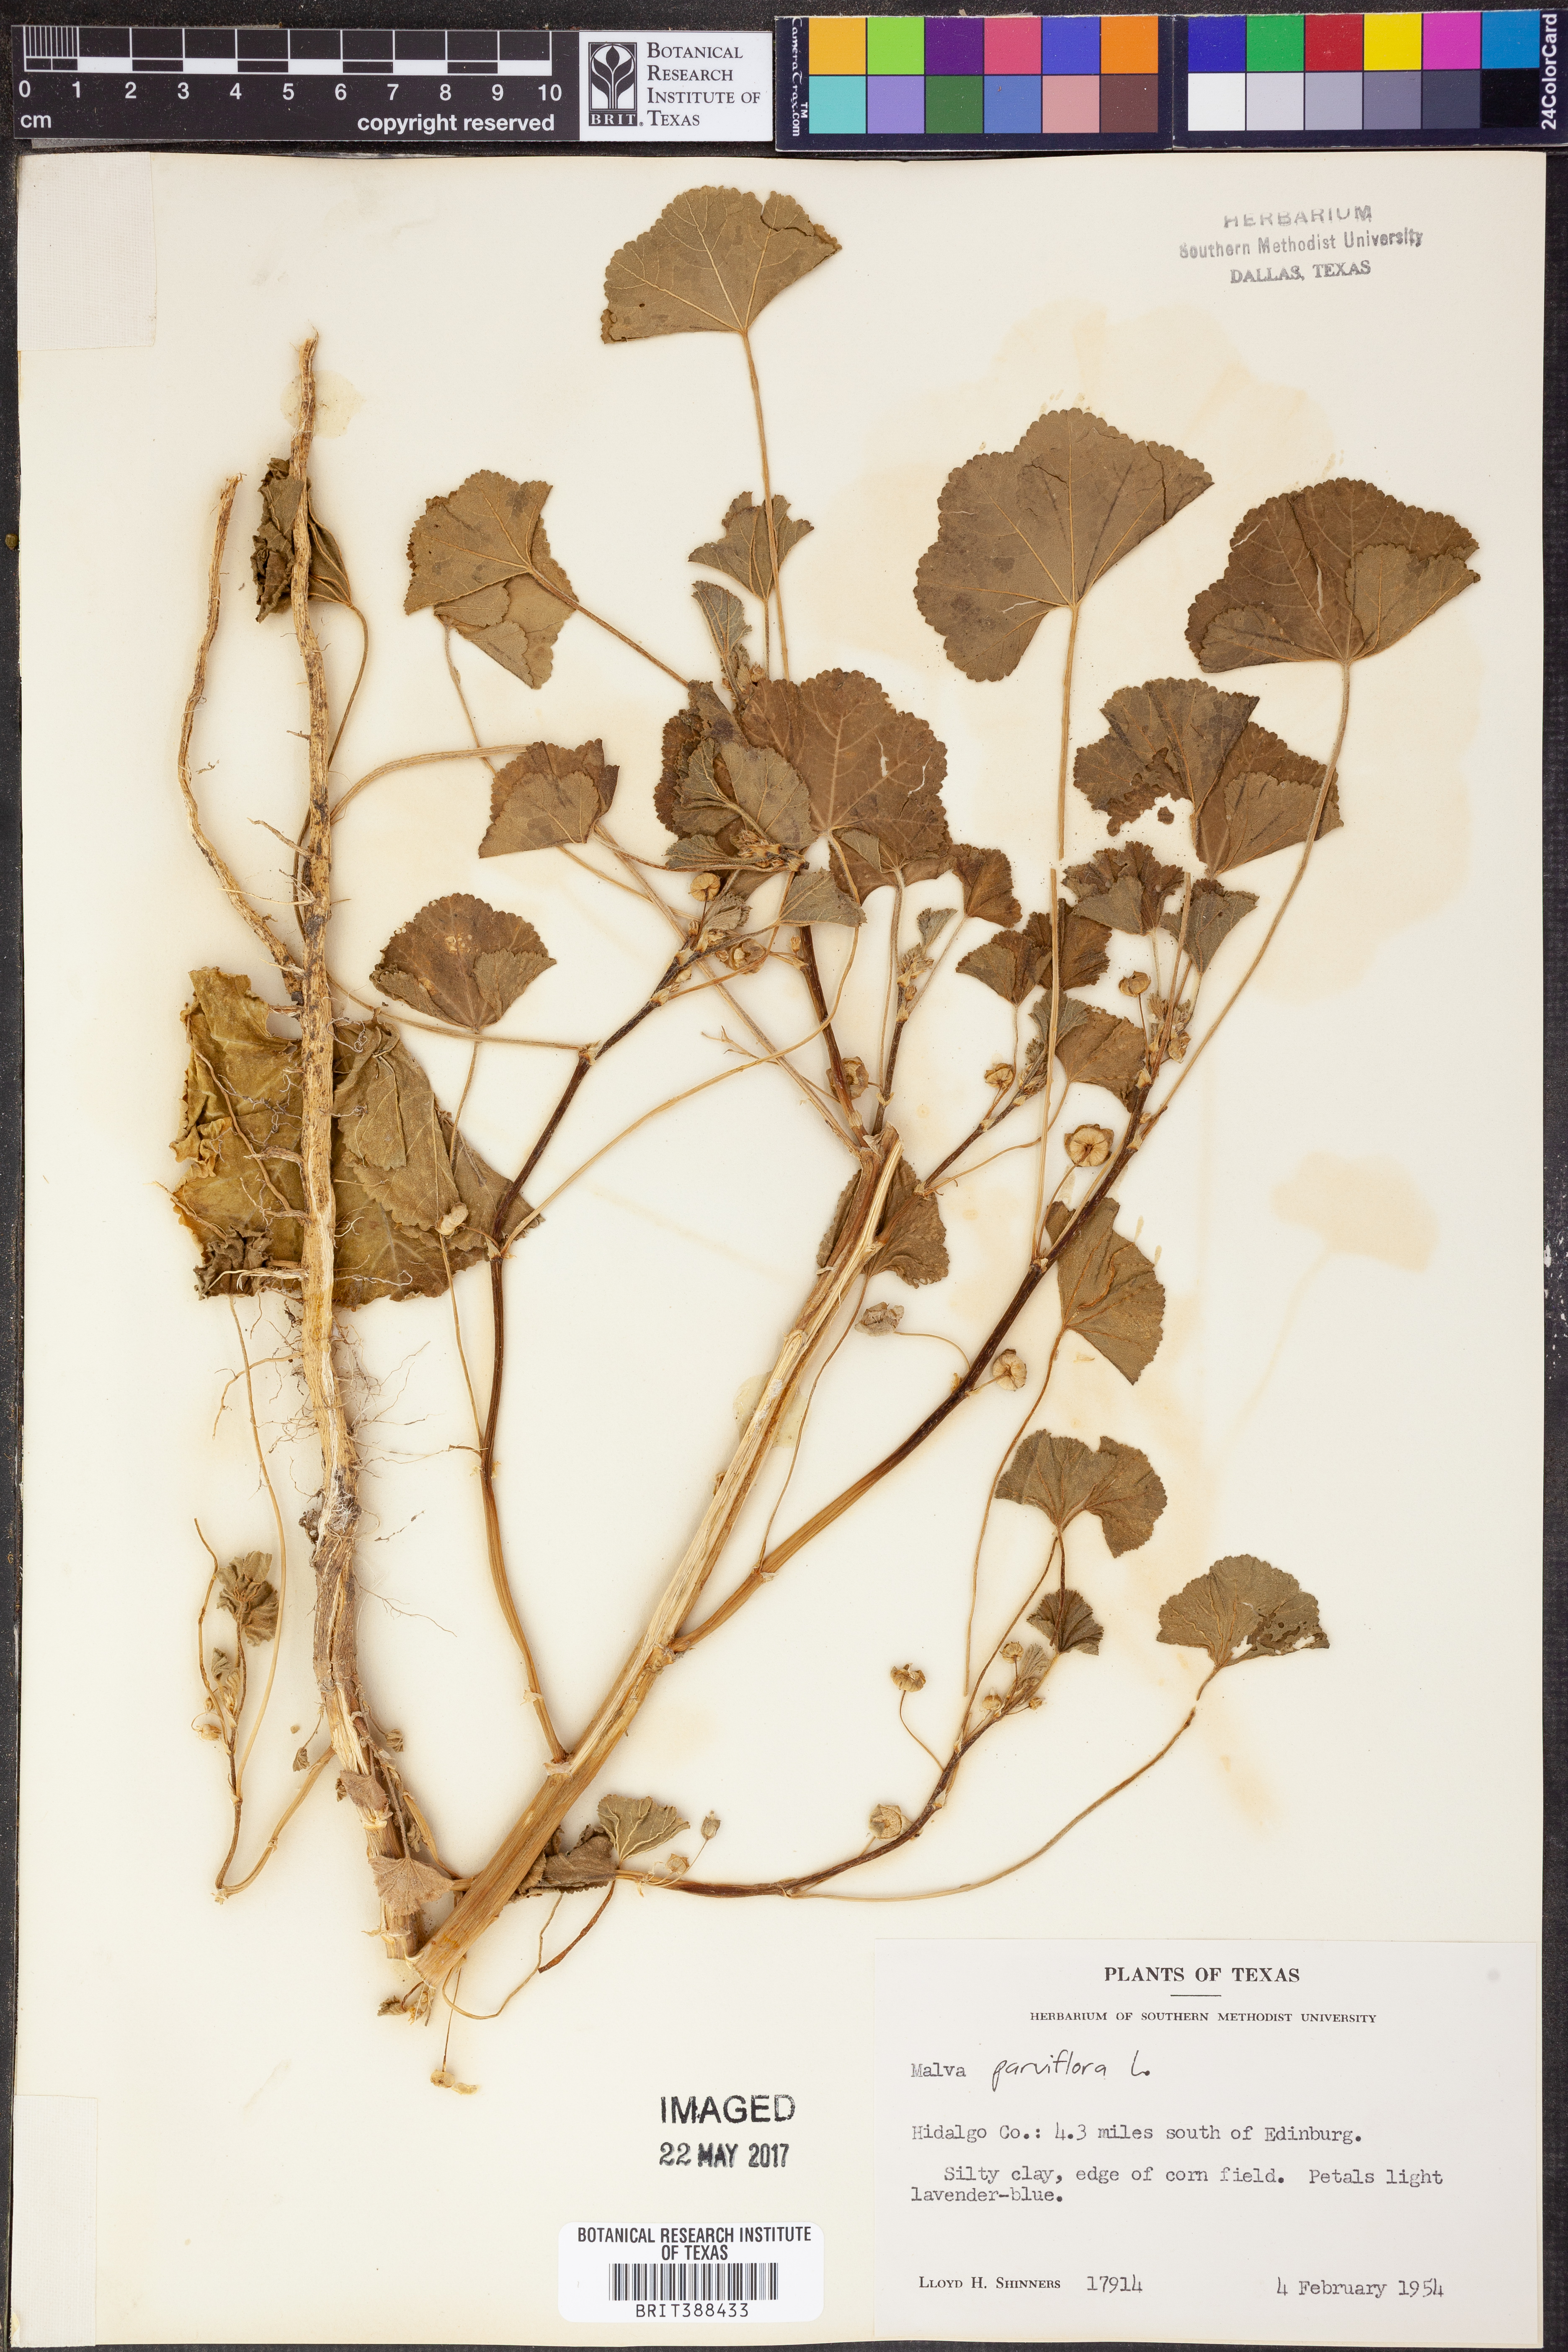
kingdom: Plantae
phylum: Tracheophyta
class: Magnoliopsida
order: Malvales
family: Malvaceae
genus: Malva
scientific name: Malva parviflora
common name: Least mallow
